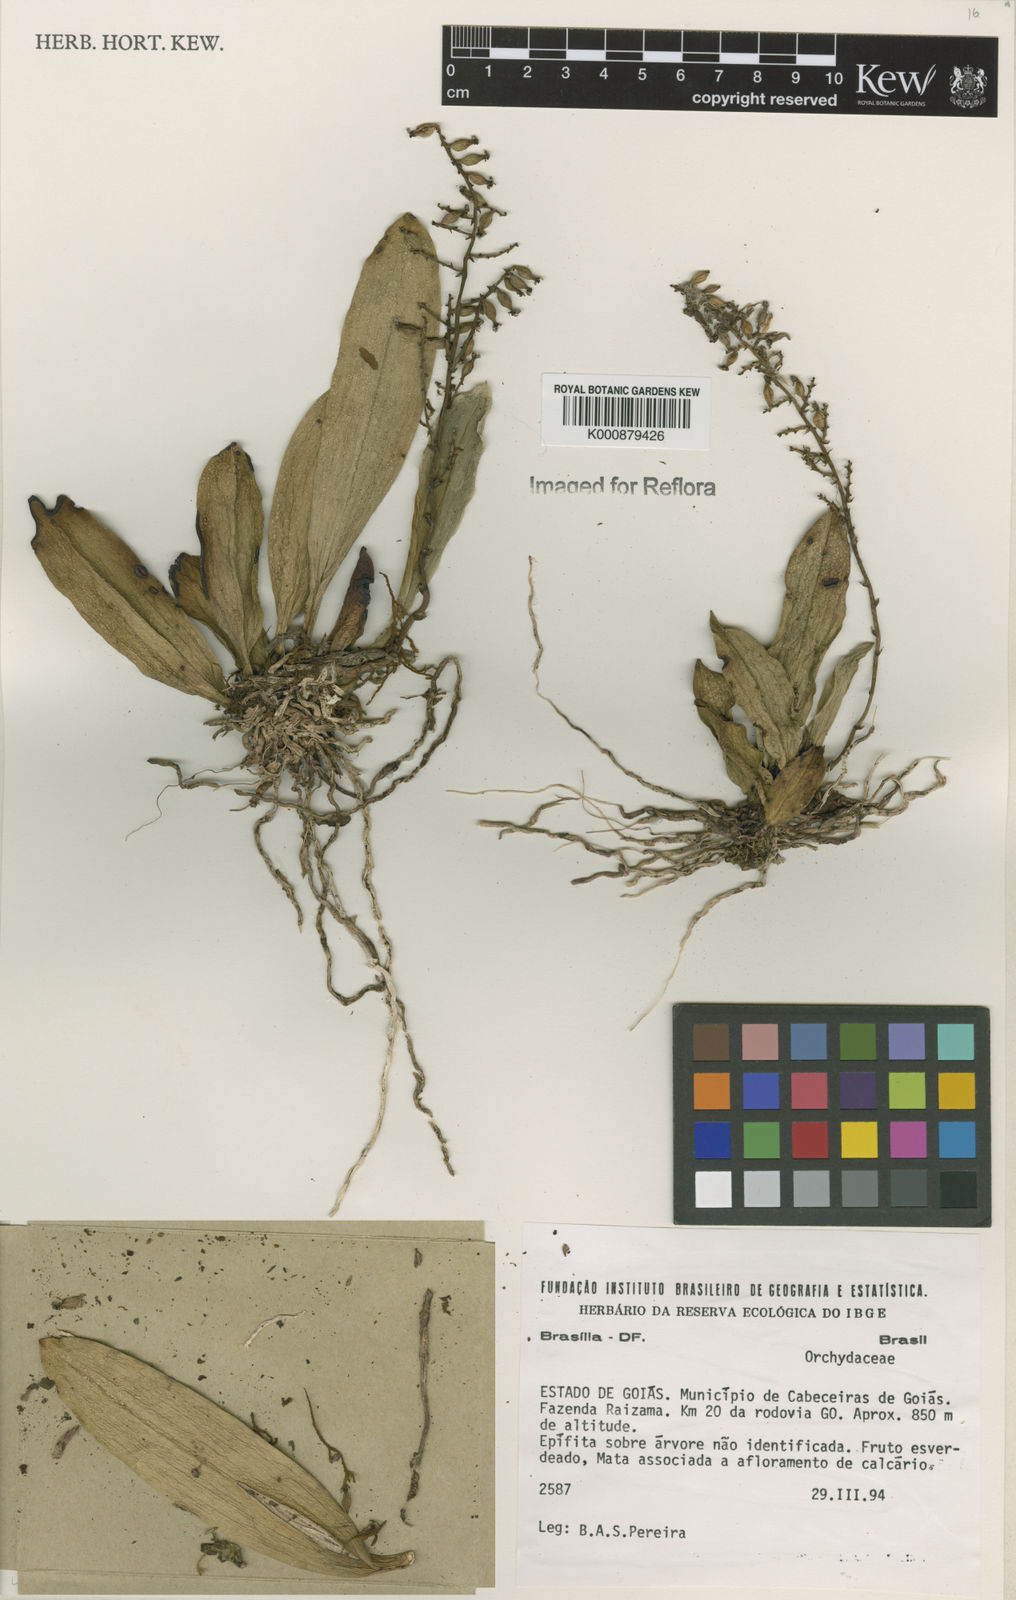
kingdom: Plantae
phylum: Tracheophyta
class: Liliopsida
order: Asparagales
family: Orchidaceae
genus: Brassia
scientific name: Brassia
